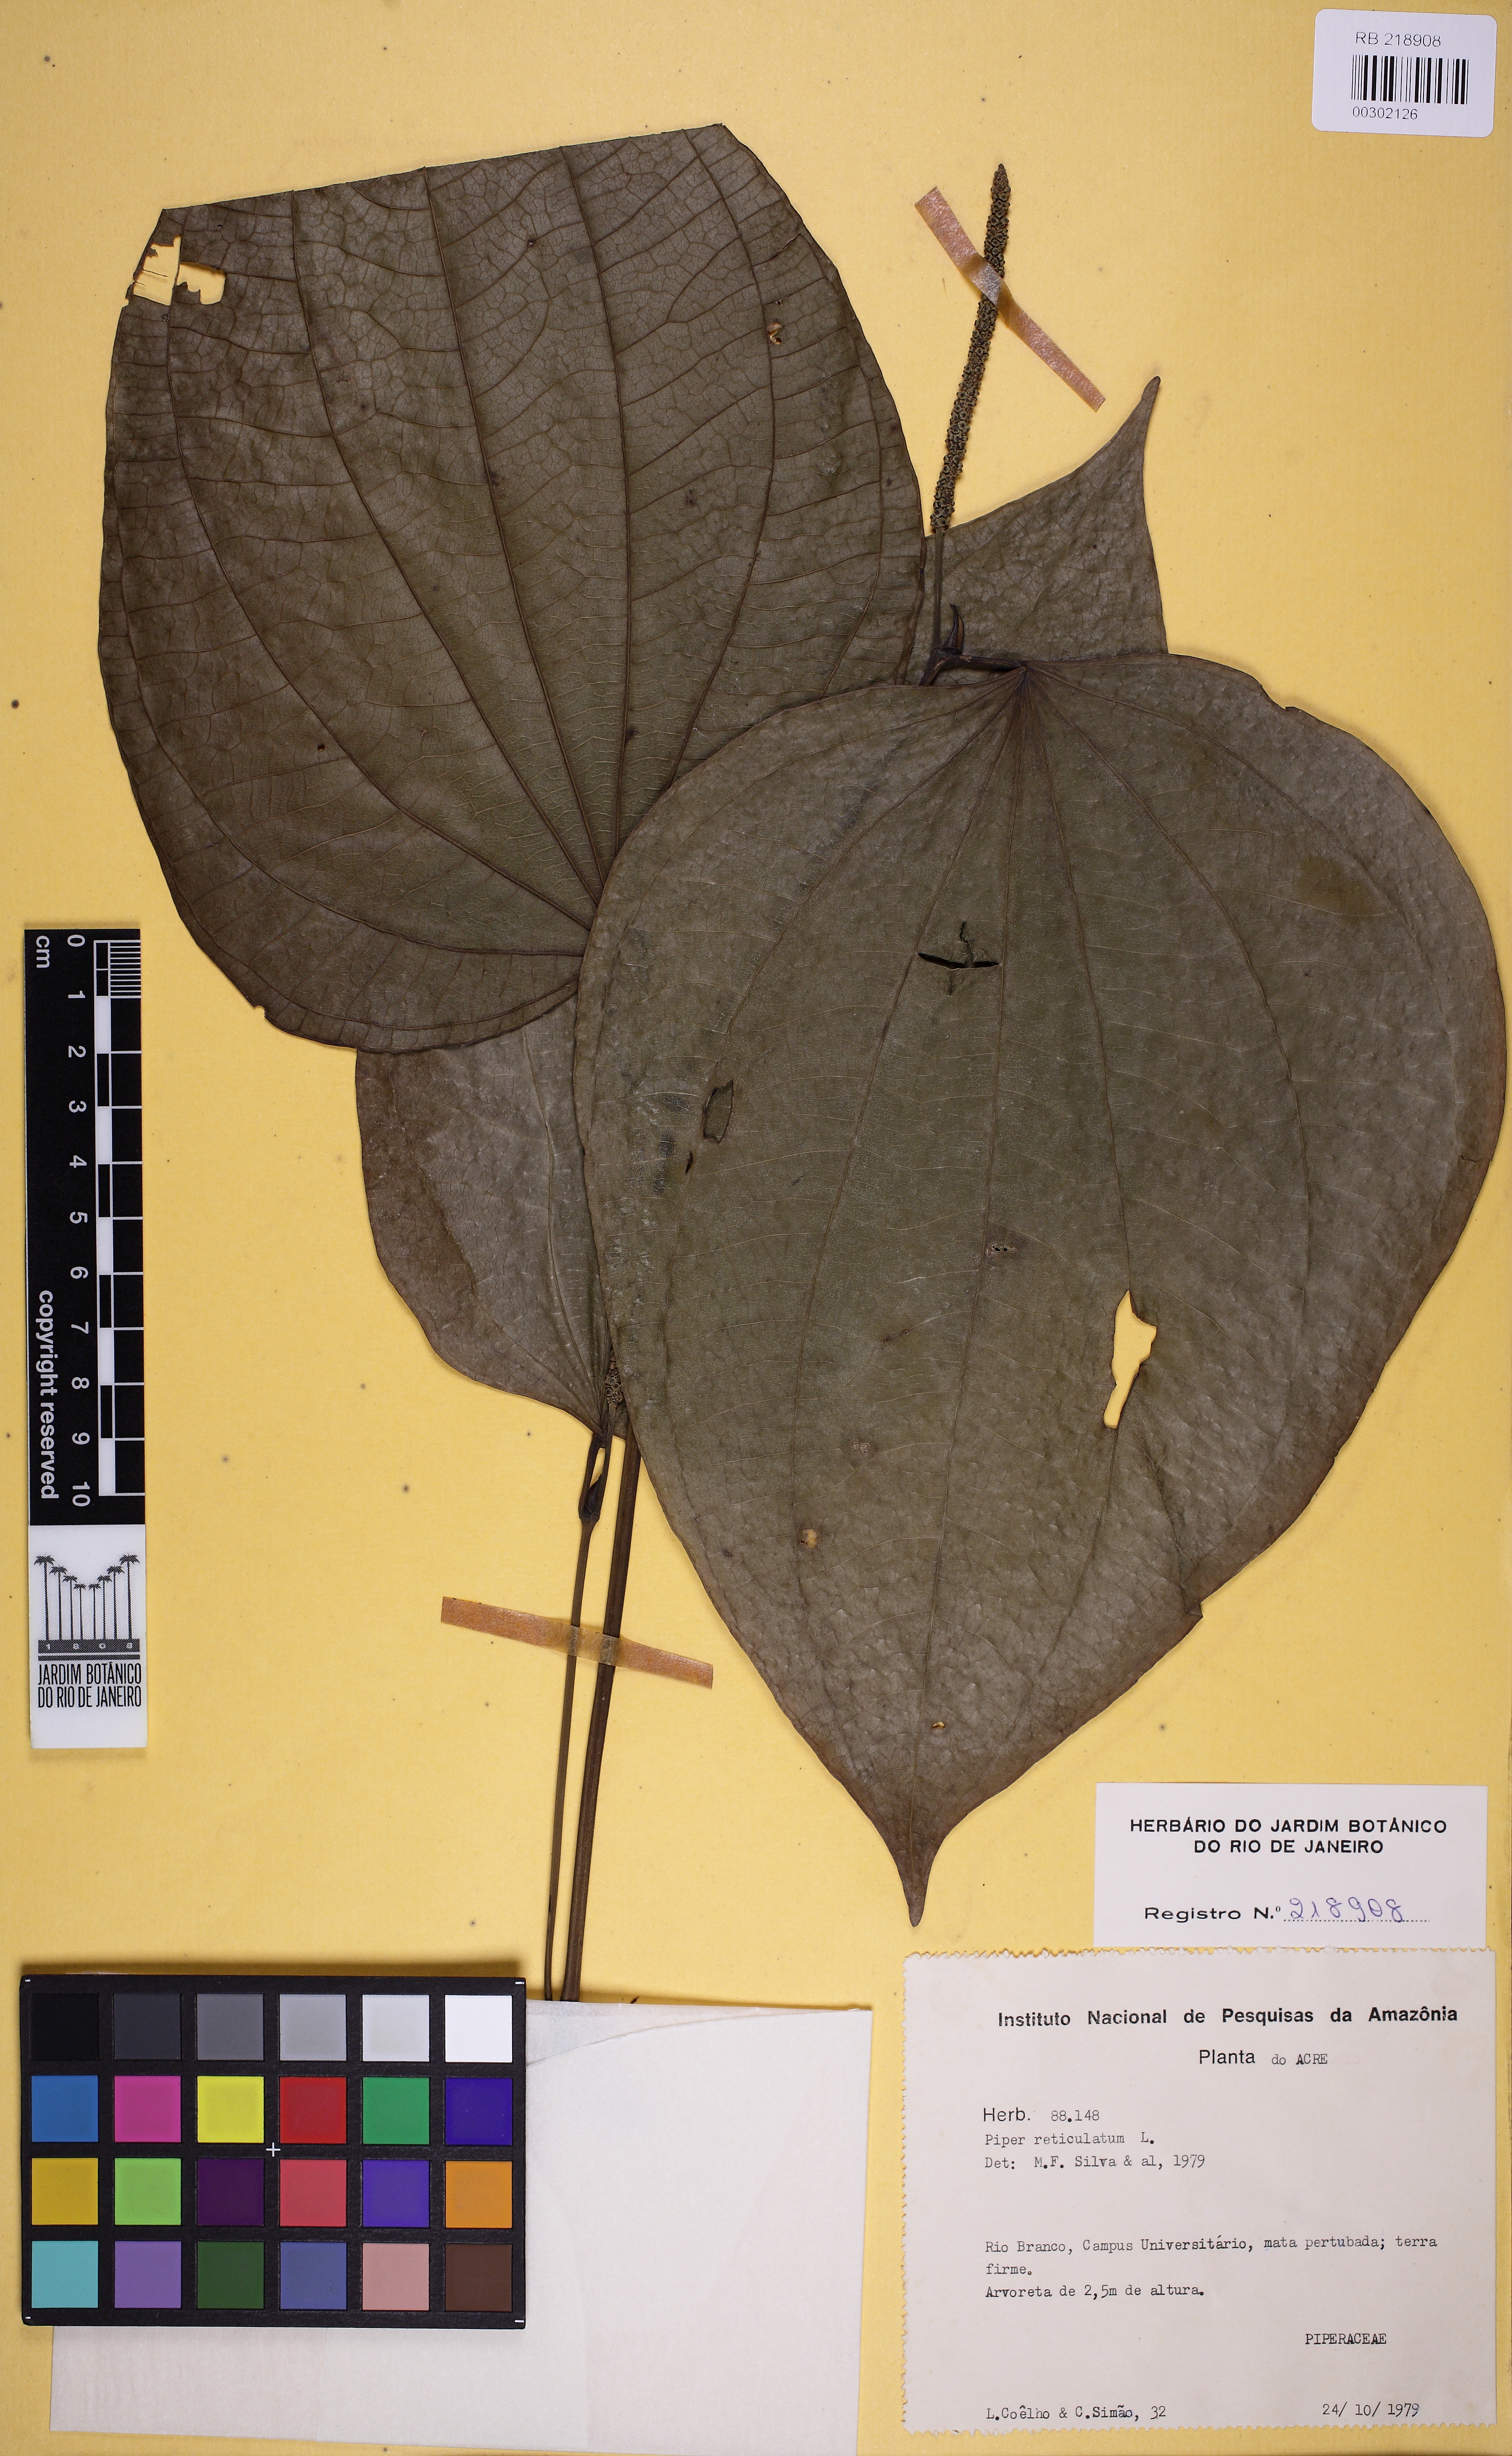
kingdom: Plantae
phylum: Tracheophyta
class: Magnoliopsida
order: Piperales
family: Piperaceae
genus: Piper
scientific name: Piper reticulatum
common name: Wild cane
